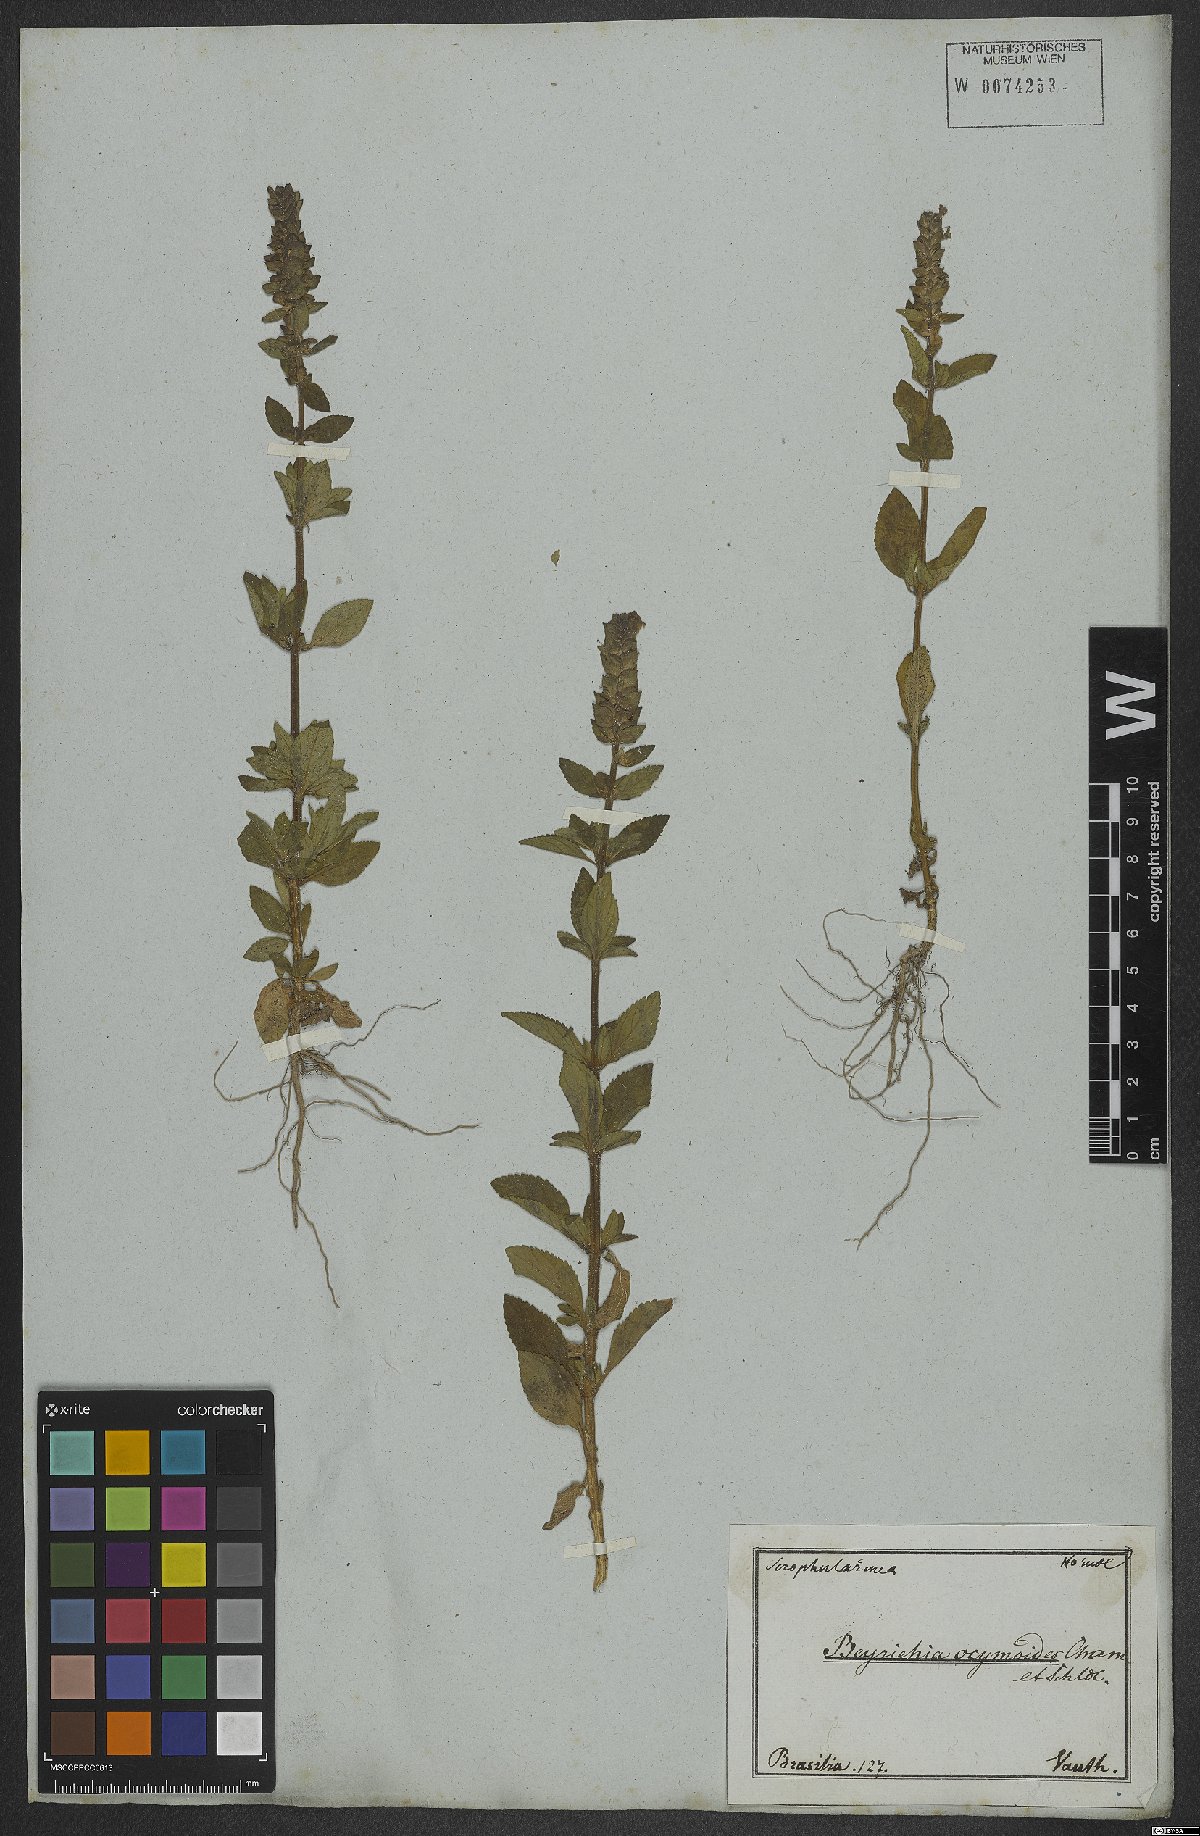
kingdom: Plantae
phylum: Tracheophyta
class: Magnoliopsida
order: Lamiales
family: Plantaginaceae
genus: Matourea
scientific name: Matourea ocymoides
